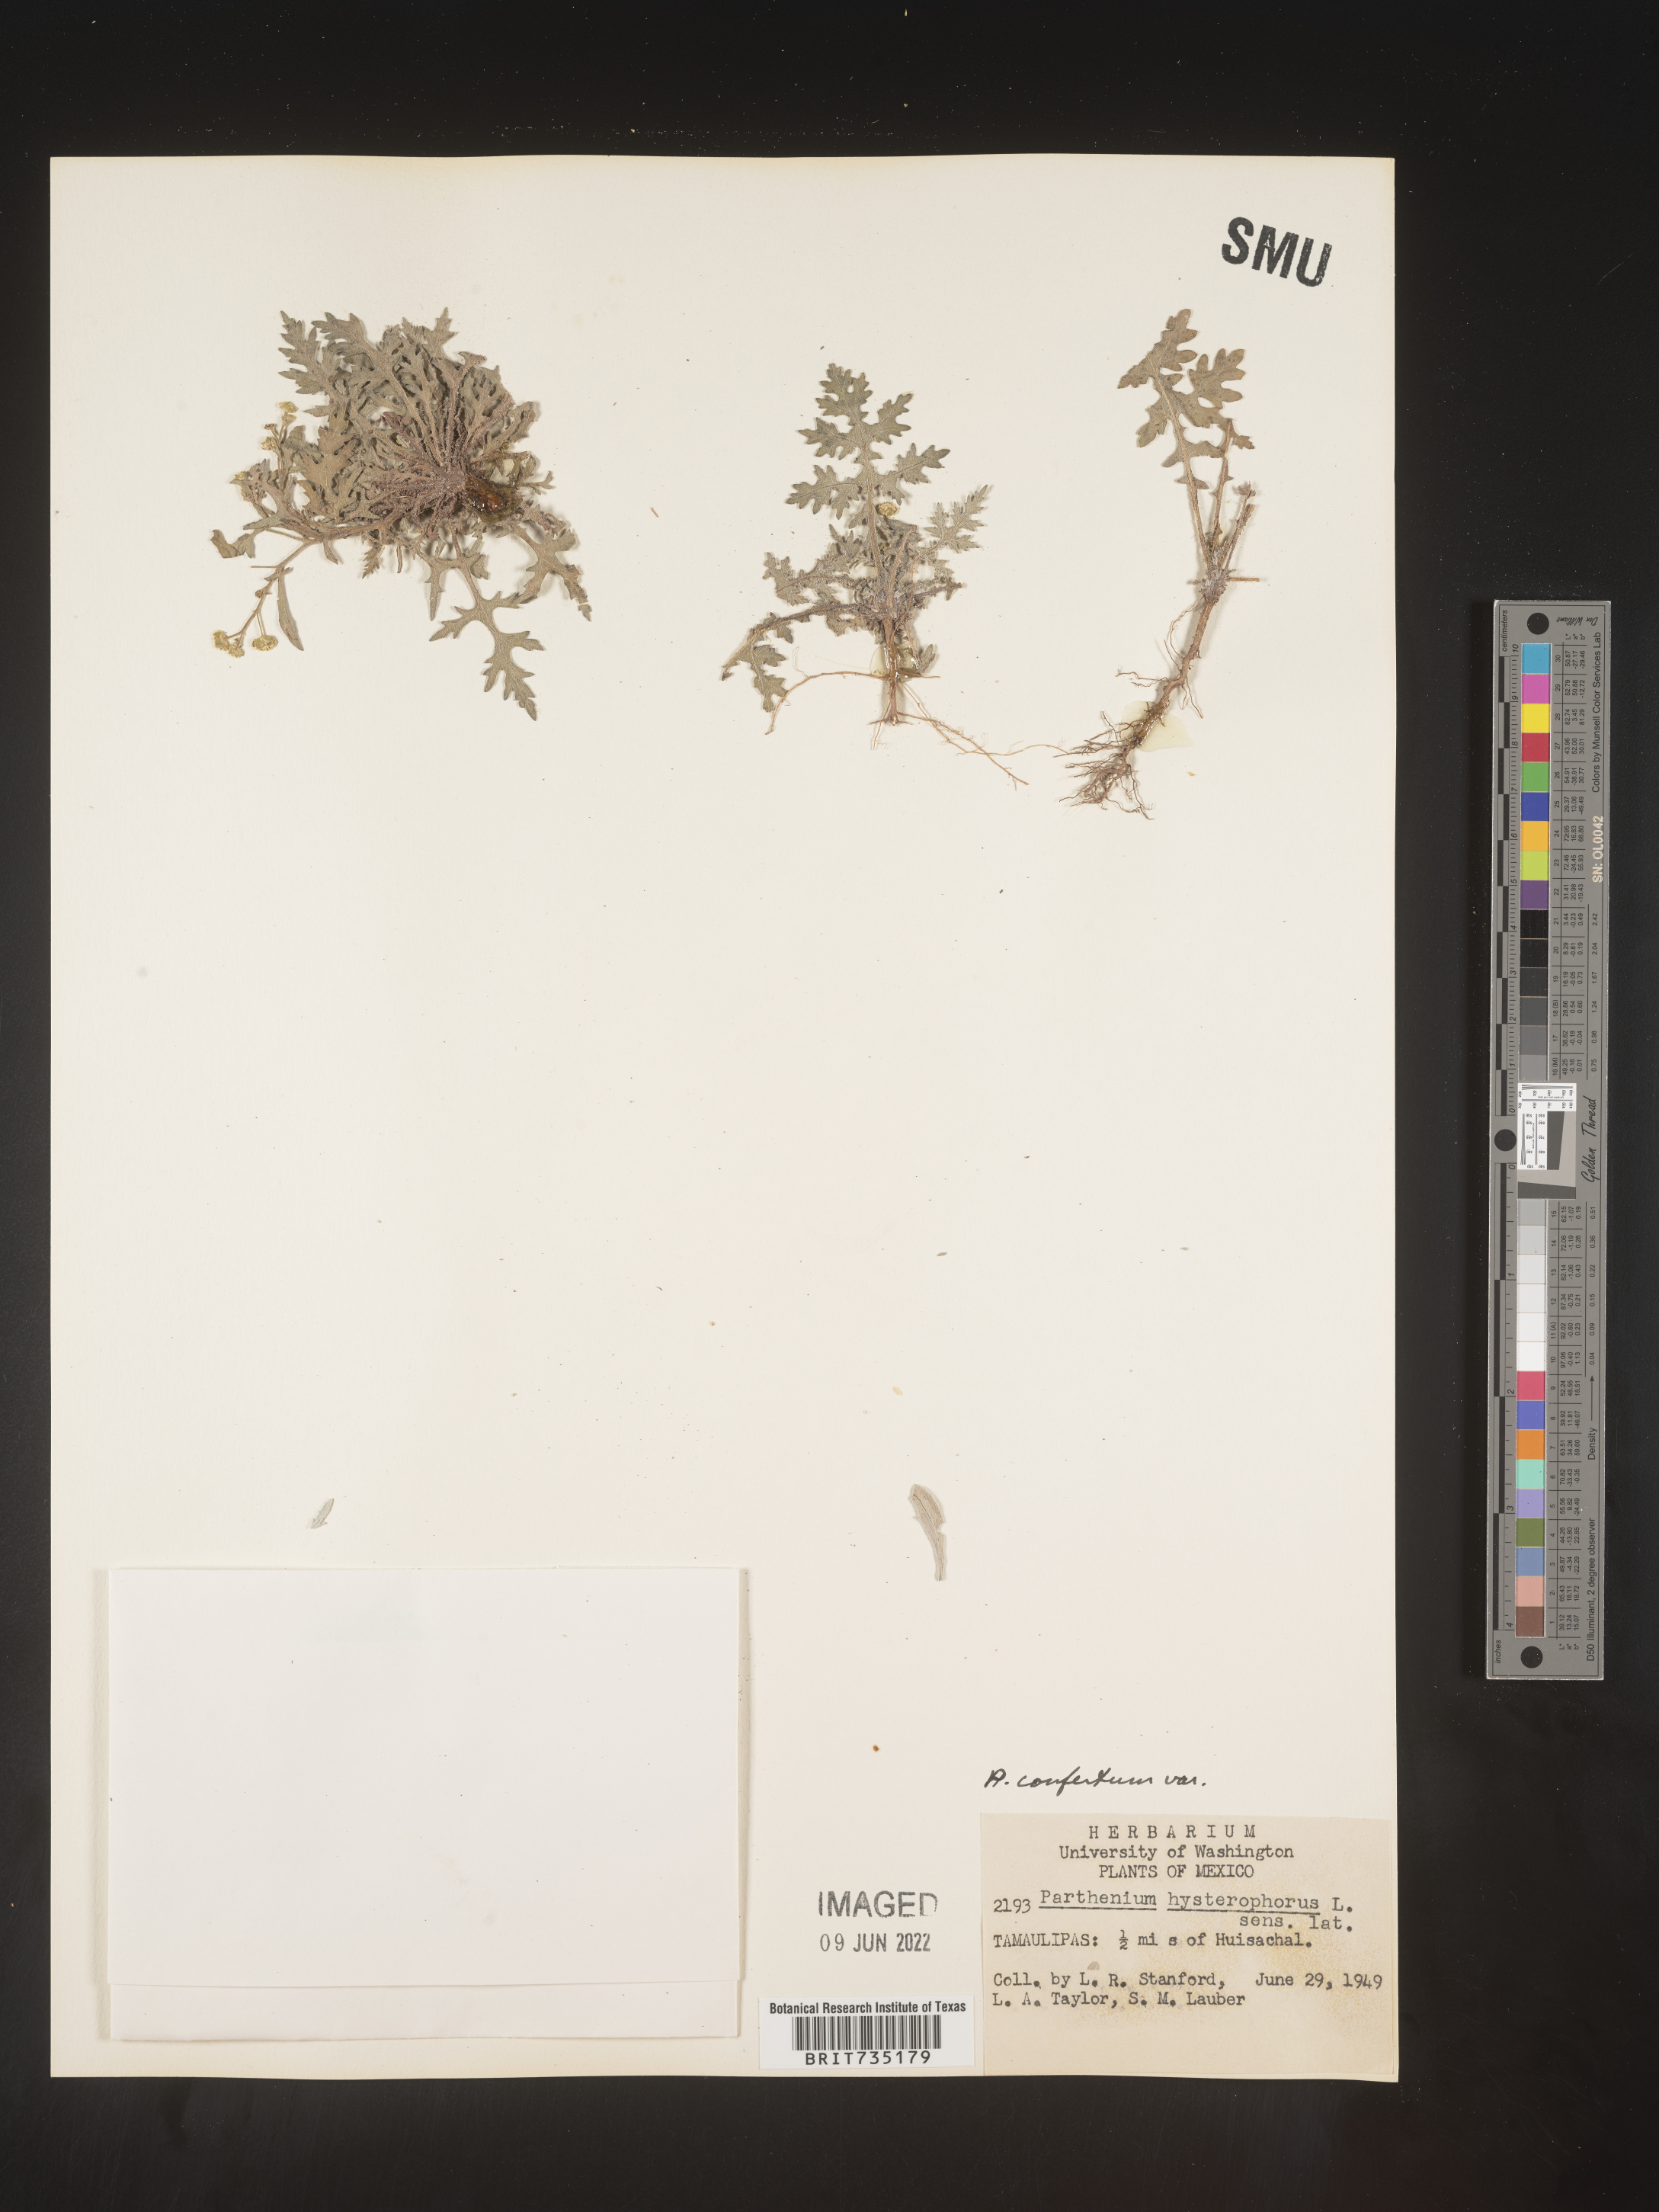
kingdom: Plantae
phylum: Tracheophyta
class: Magnoliopsida
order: Asterales
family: Asteraceae
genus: Parthenium
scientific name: Parthenium
